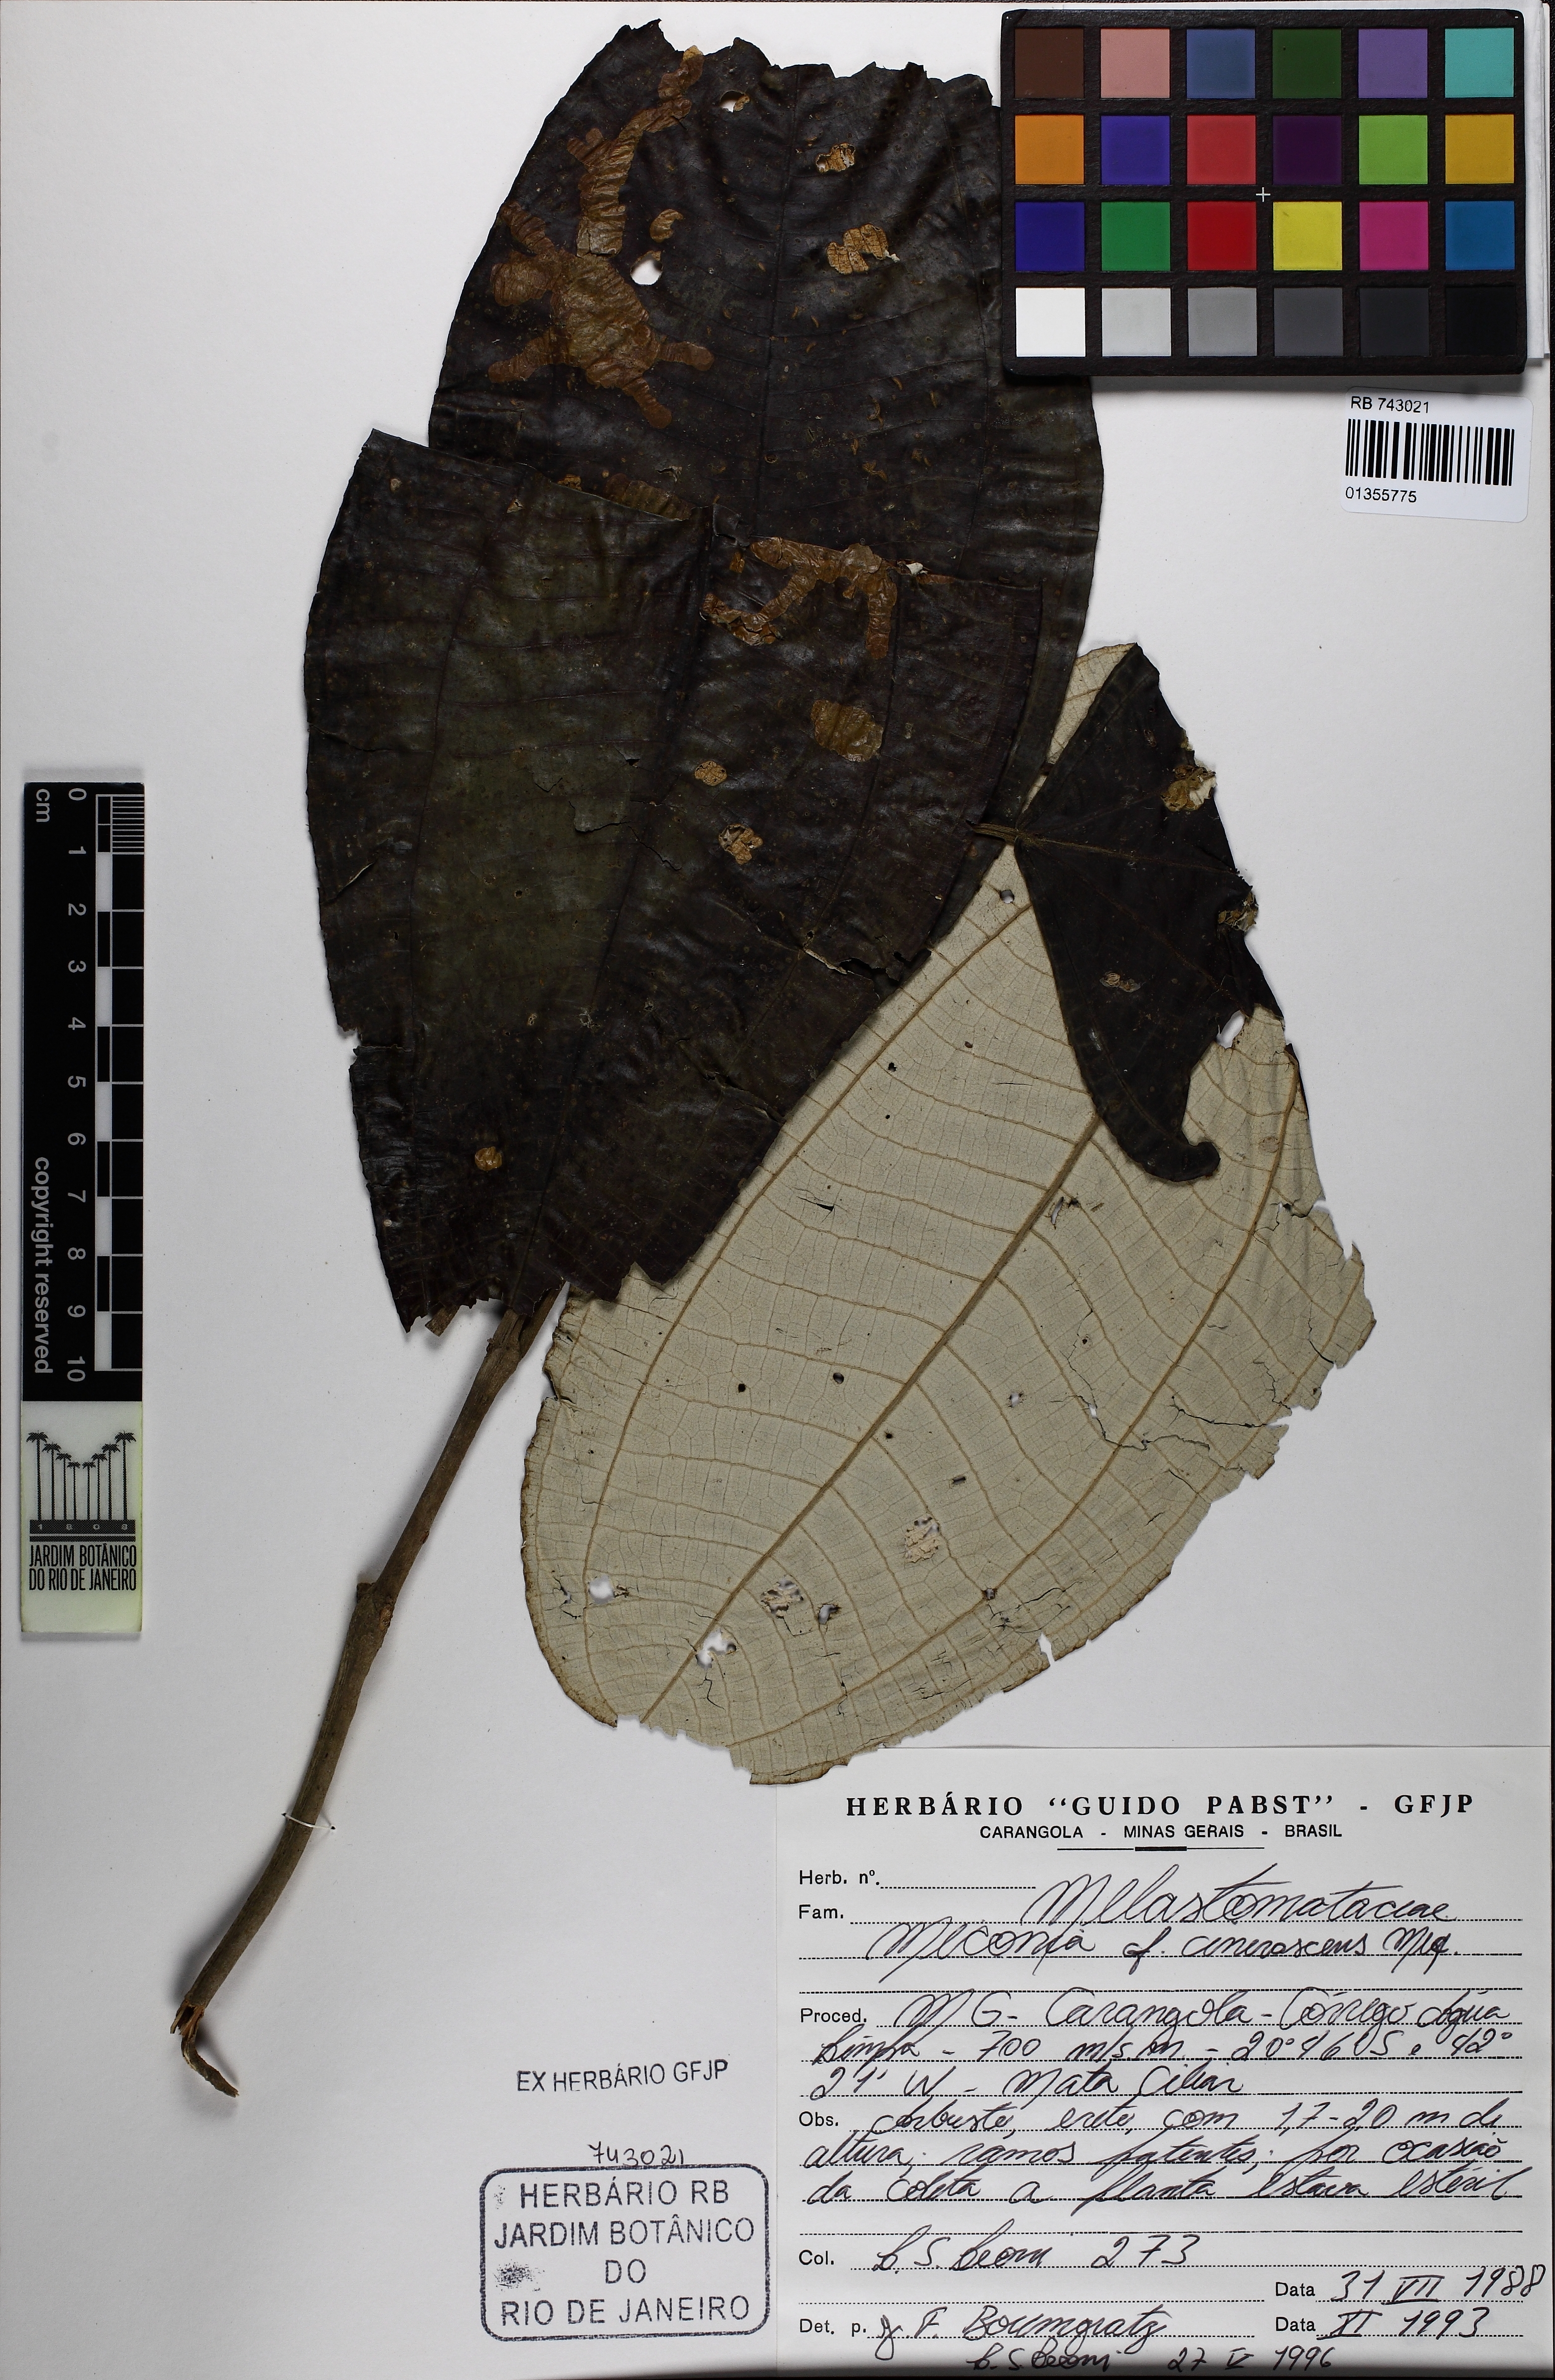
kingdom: Plantae
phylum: Tracheophyta
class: Magnoliopsida
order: Myrtales
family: Melastomataceae
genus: Miconia
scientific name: Miconia cinerascens
